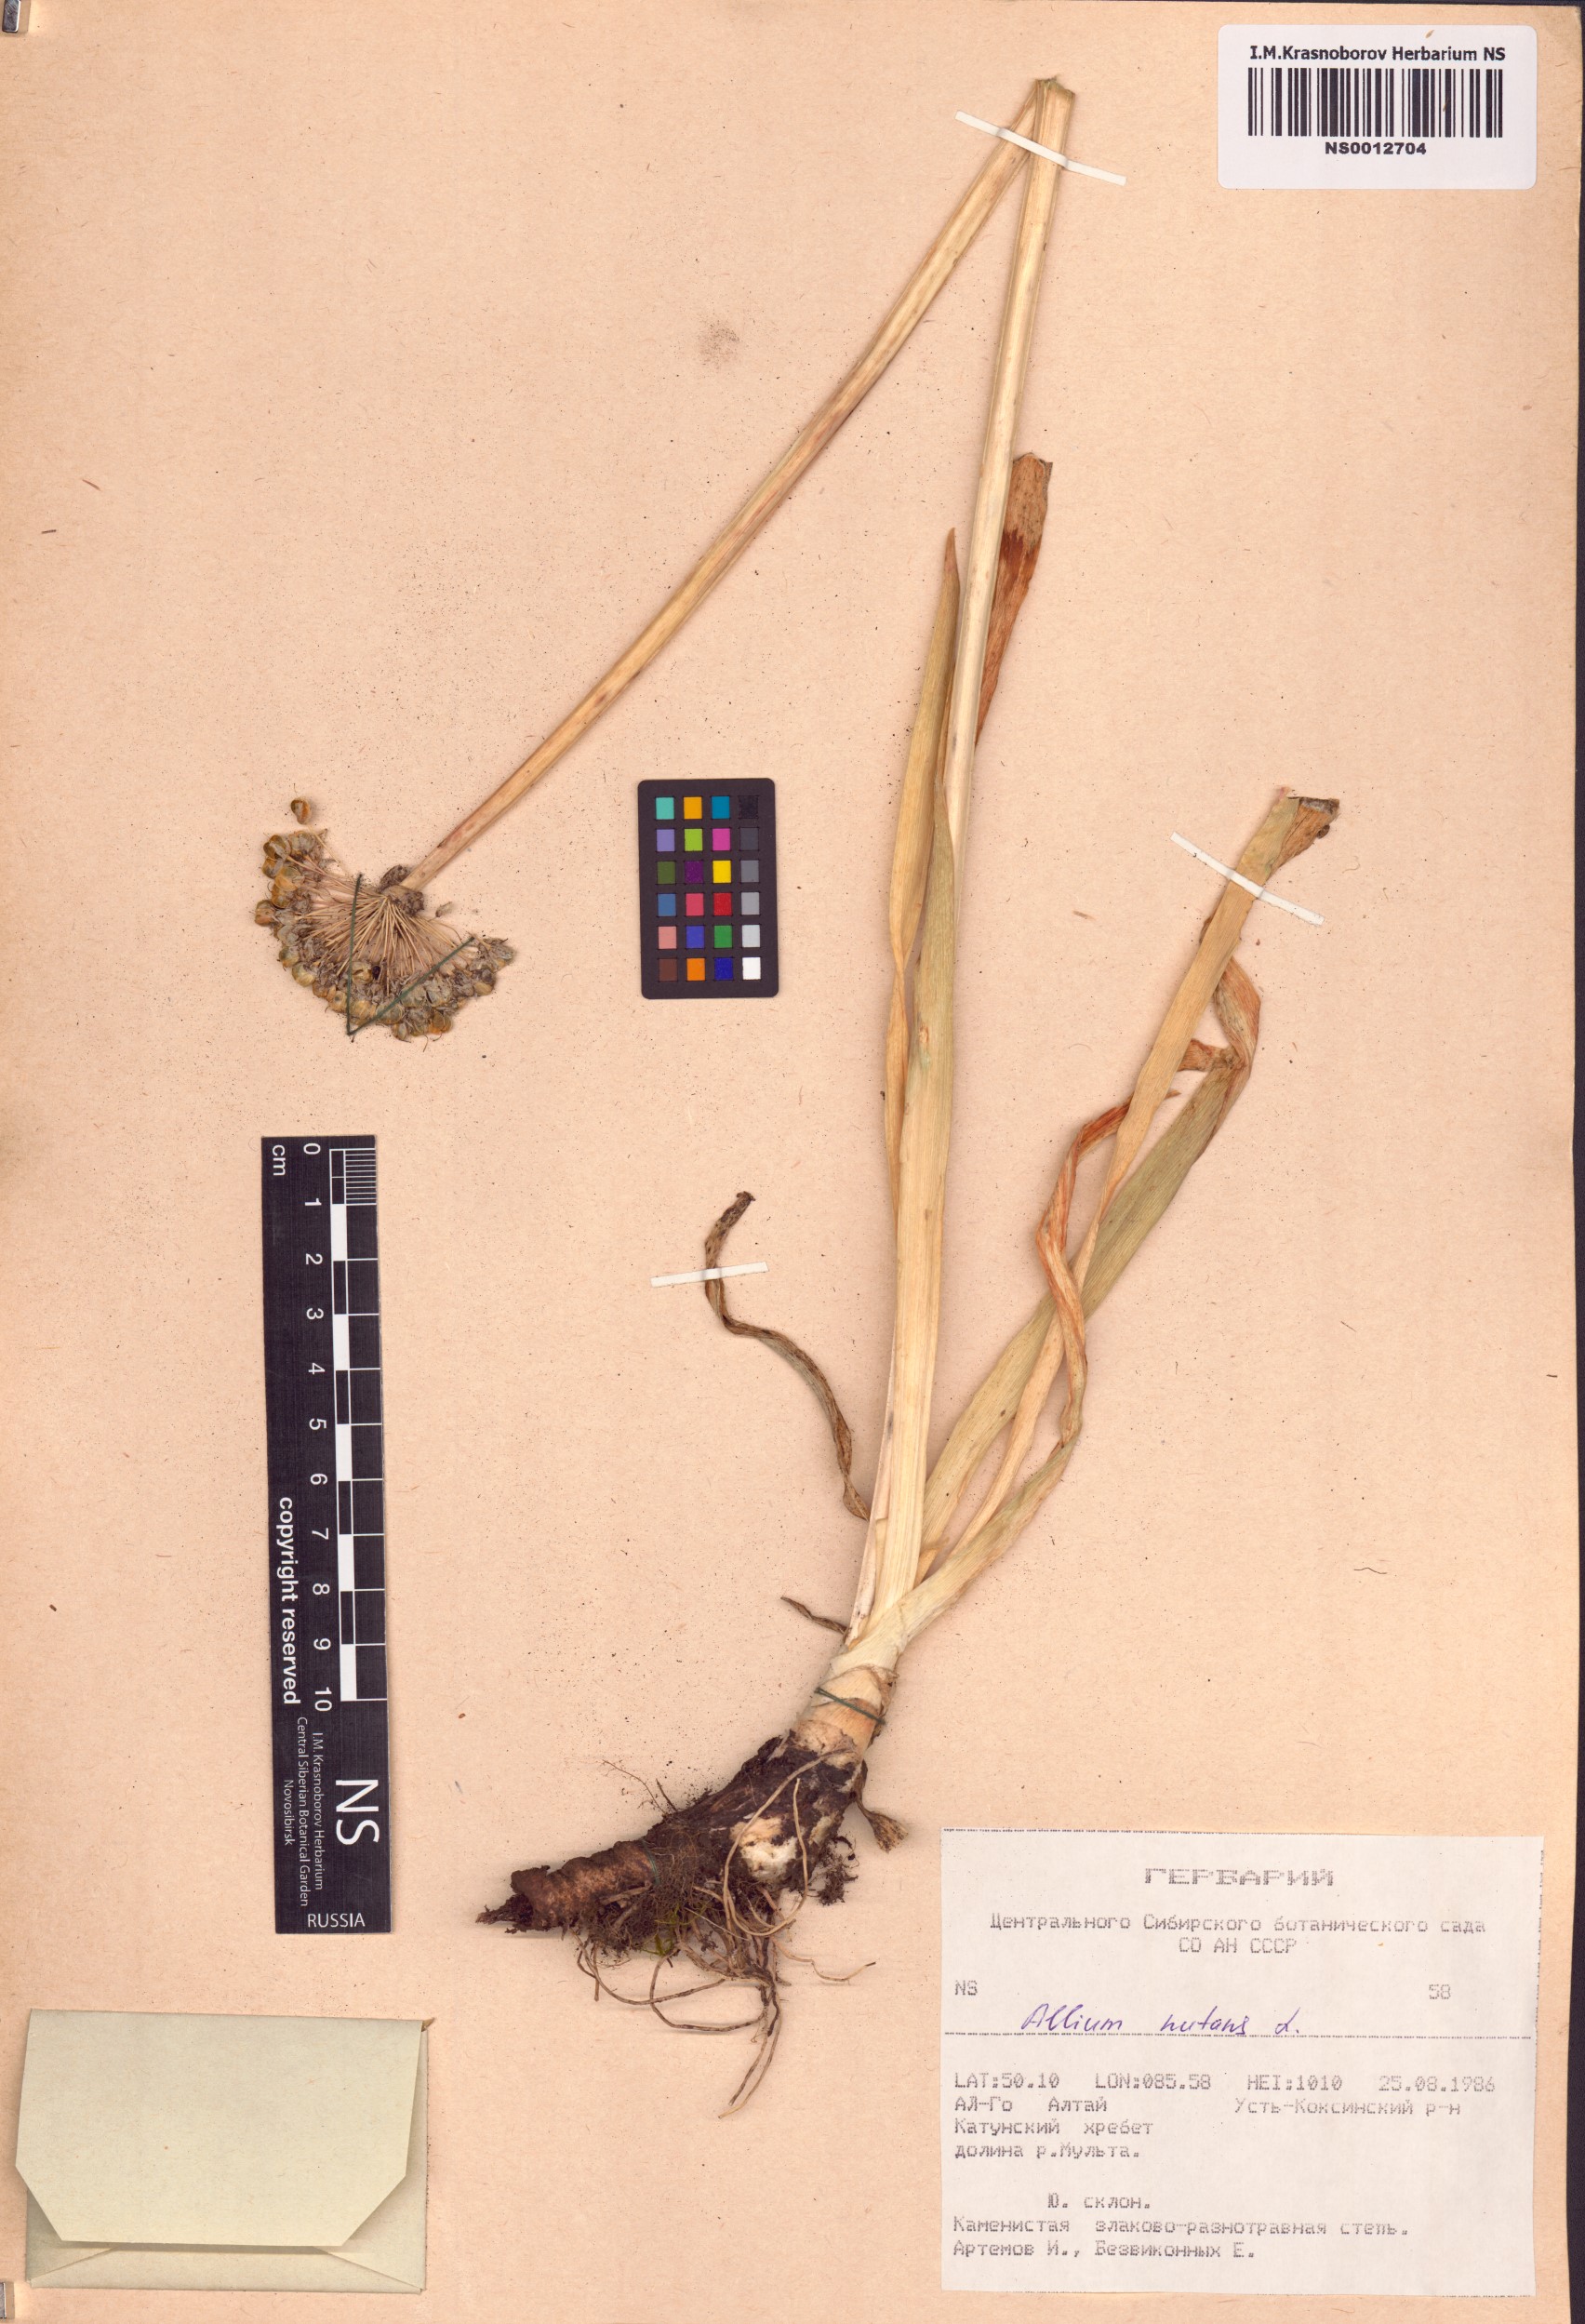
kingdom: Plantae
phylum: Tracheophyta
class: Liliopsida
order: Asparagales
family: Amaryllidaceae
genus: Allium
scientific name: Allium nutans
